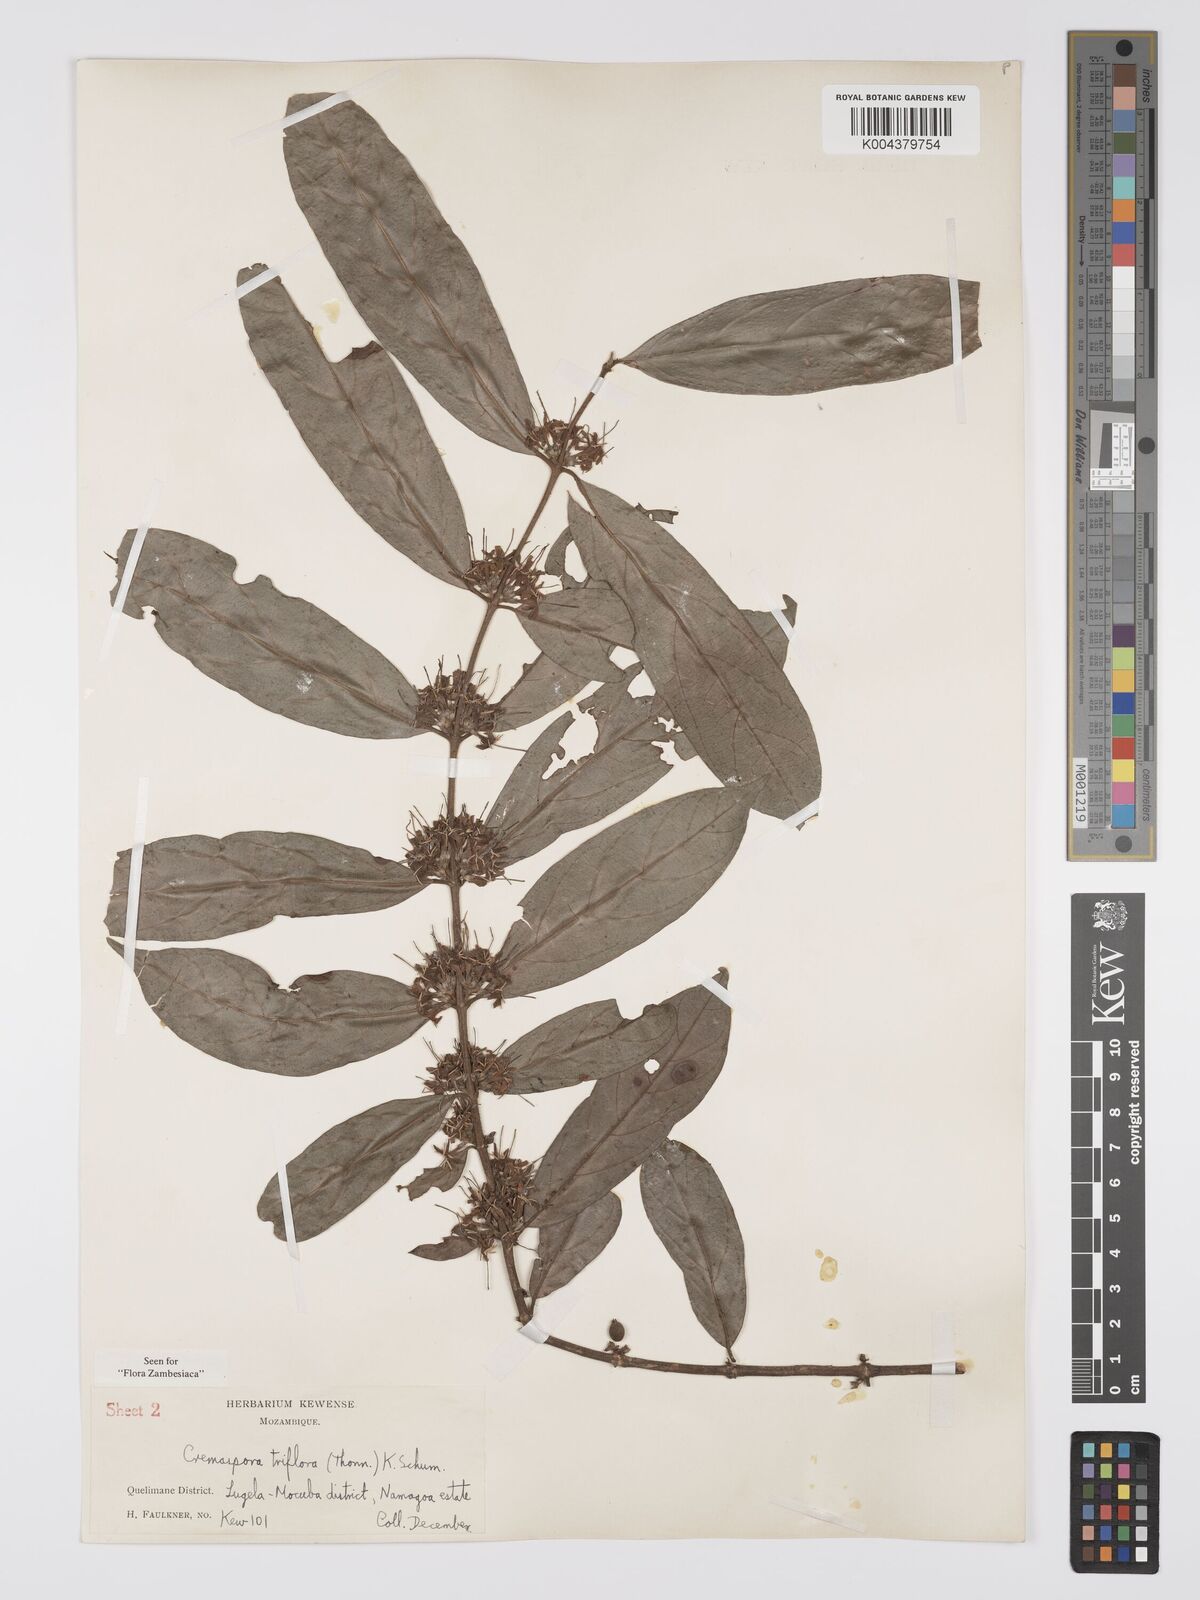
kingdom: Plantae
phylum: Tracheophyta
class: Magnoliopsida
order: Gentianales
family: Rubiaceae
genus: Cremaspora
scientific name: Cremaspora triflora
